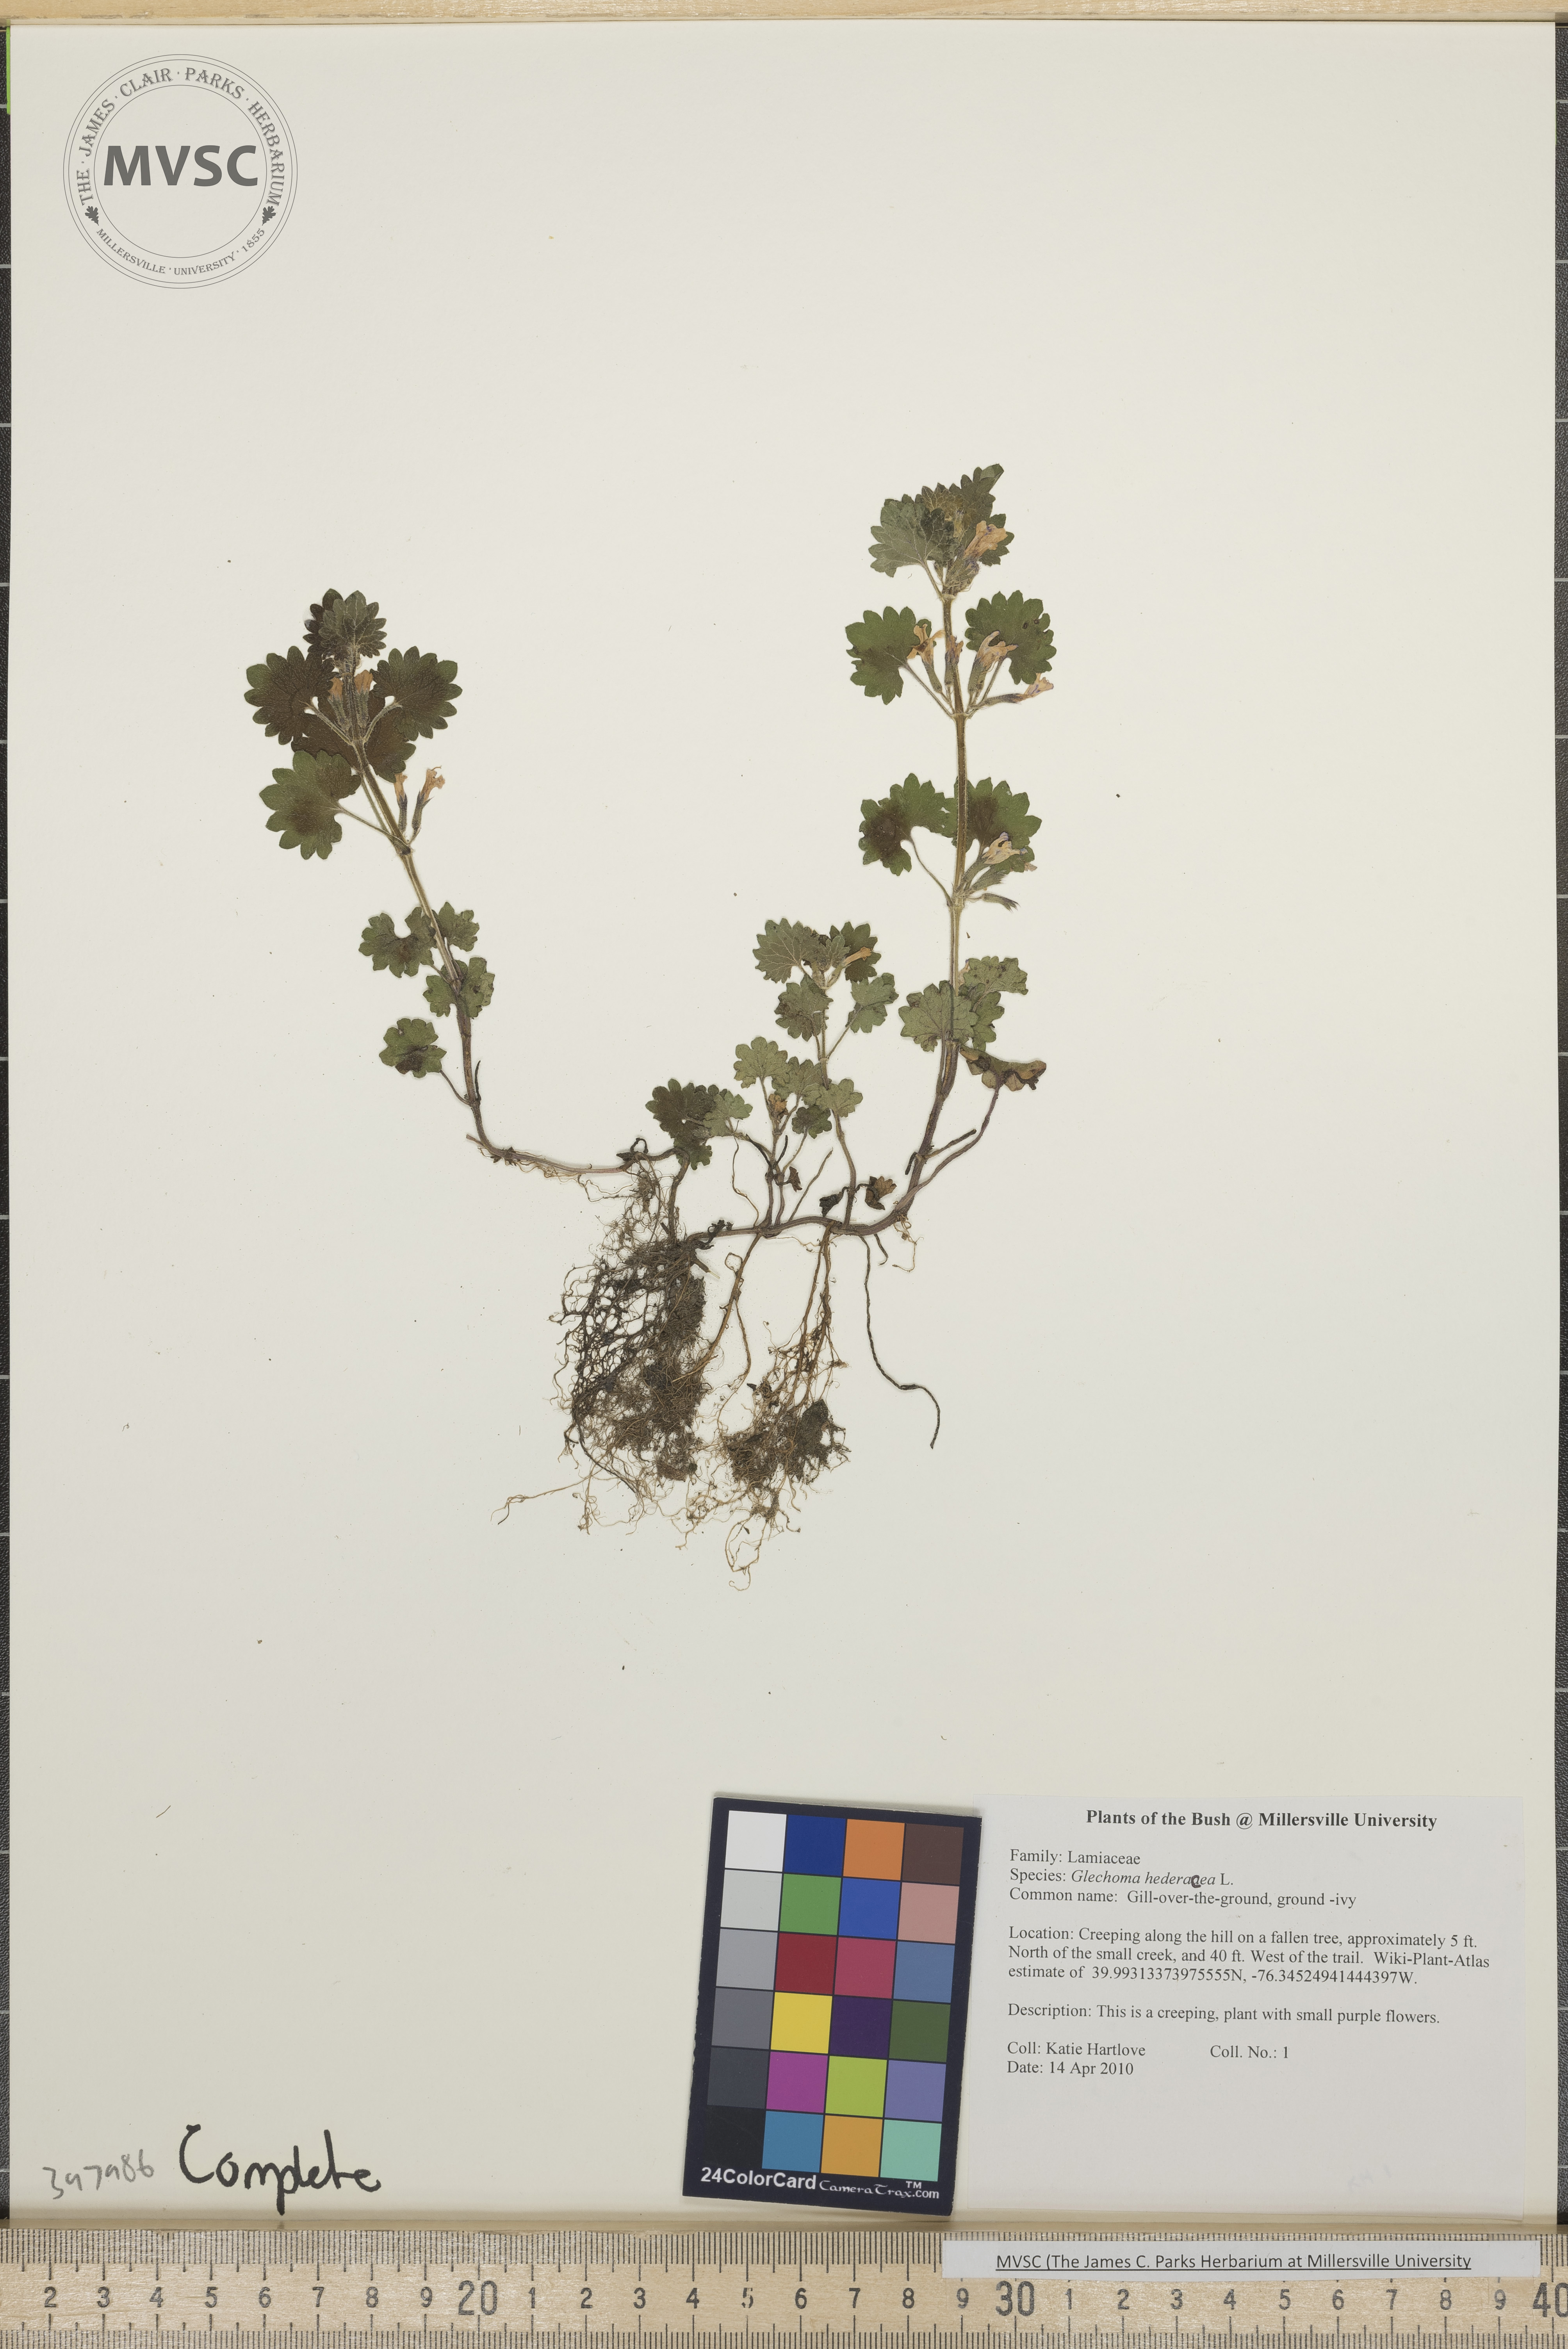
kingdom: Plantae
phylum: Tracheophyta
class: Magnoliopsida
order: Lamiales
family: Lamiaceae
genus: Glechoma
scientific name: Glechoma hederacea
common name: Gill-over-the-ground
